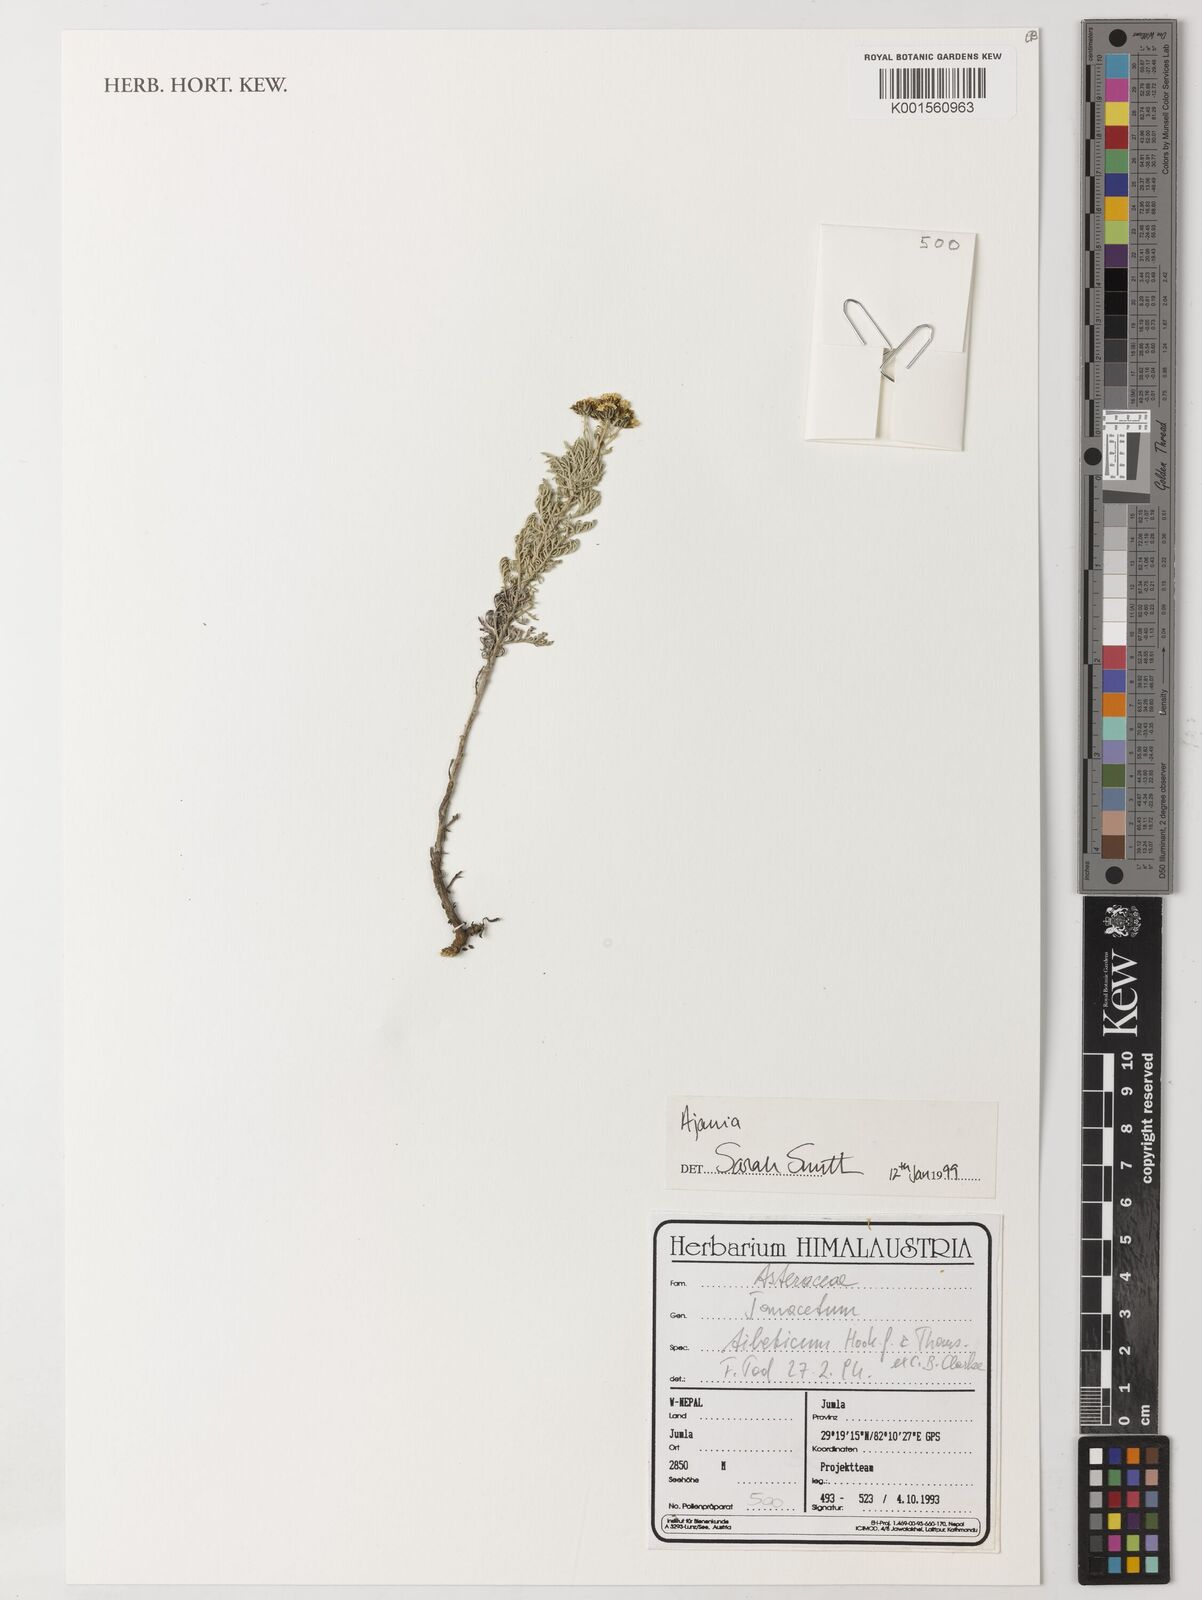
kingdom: Plantae
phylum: Tracheophyta
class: Magnoliopsida
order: Asterales
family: Asteraceae
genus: Ajania
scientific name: Ajania
